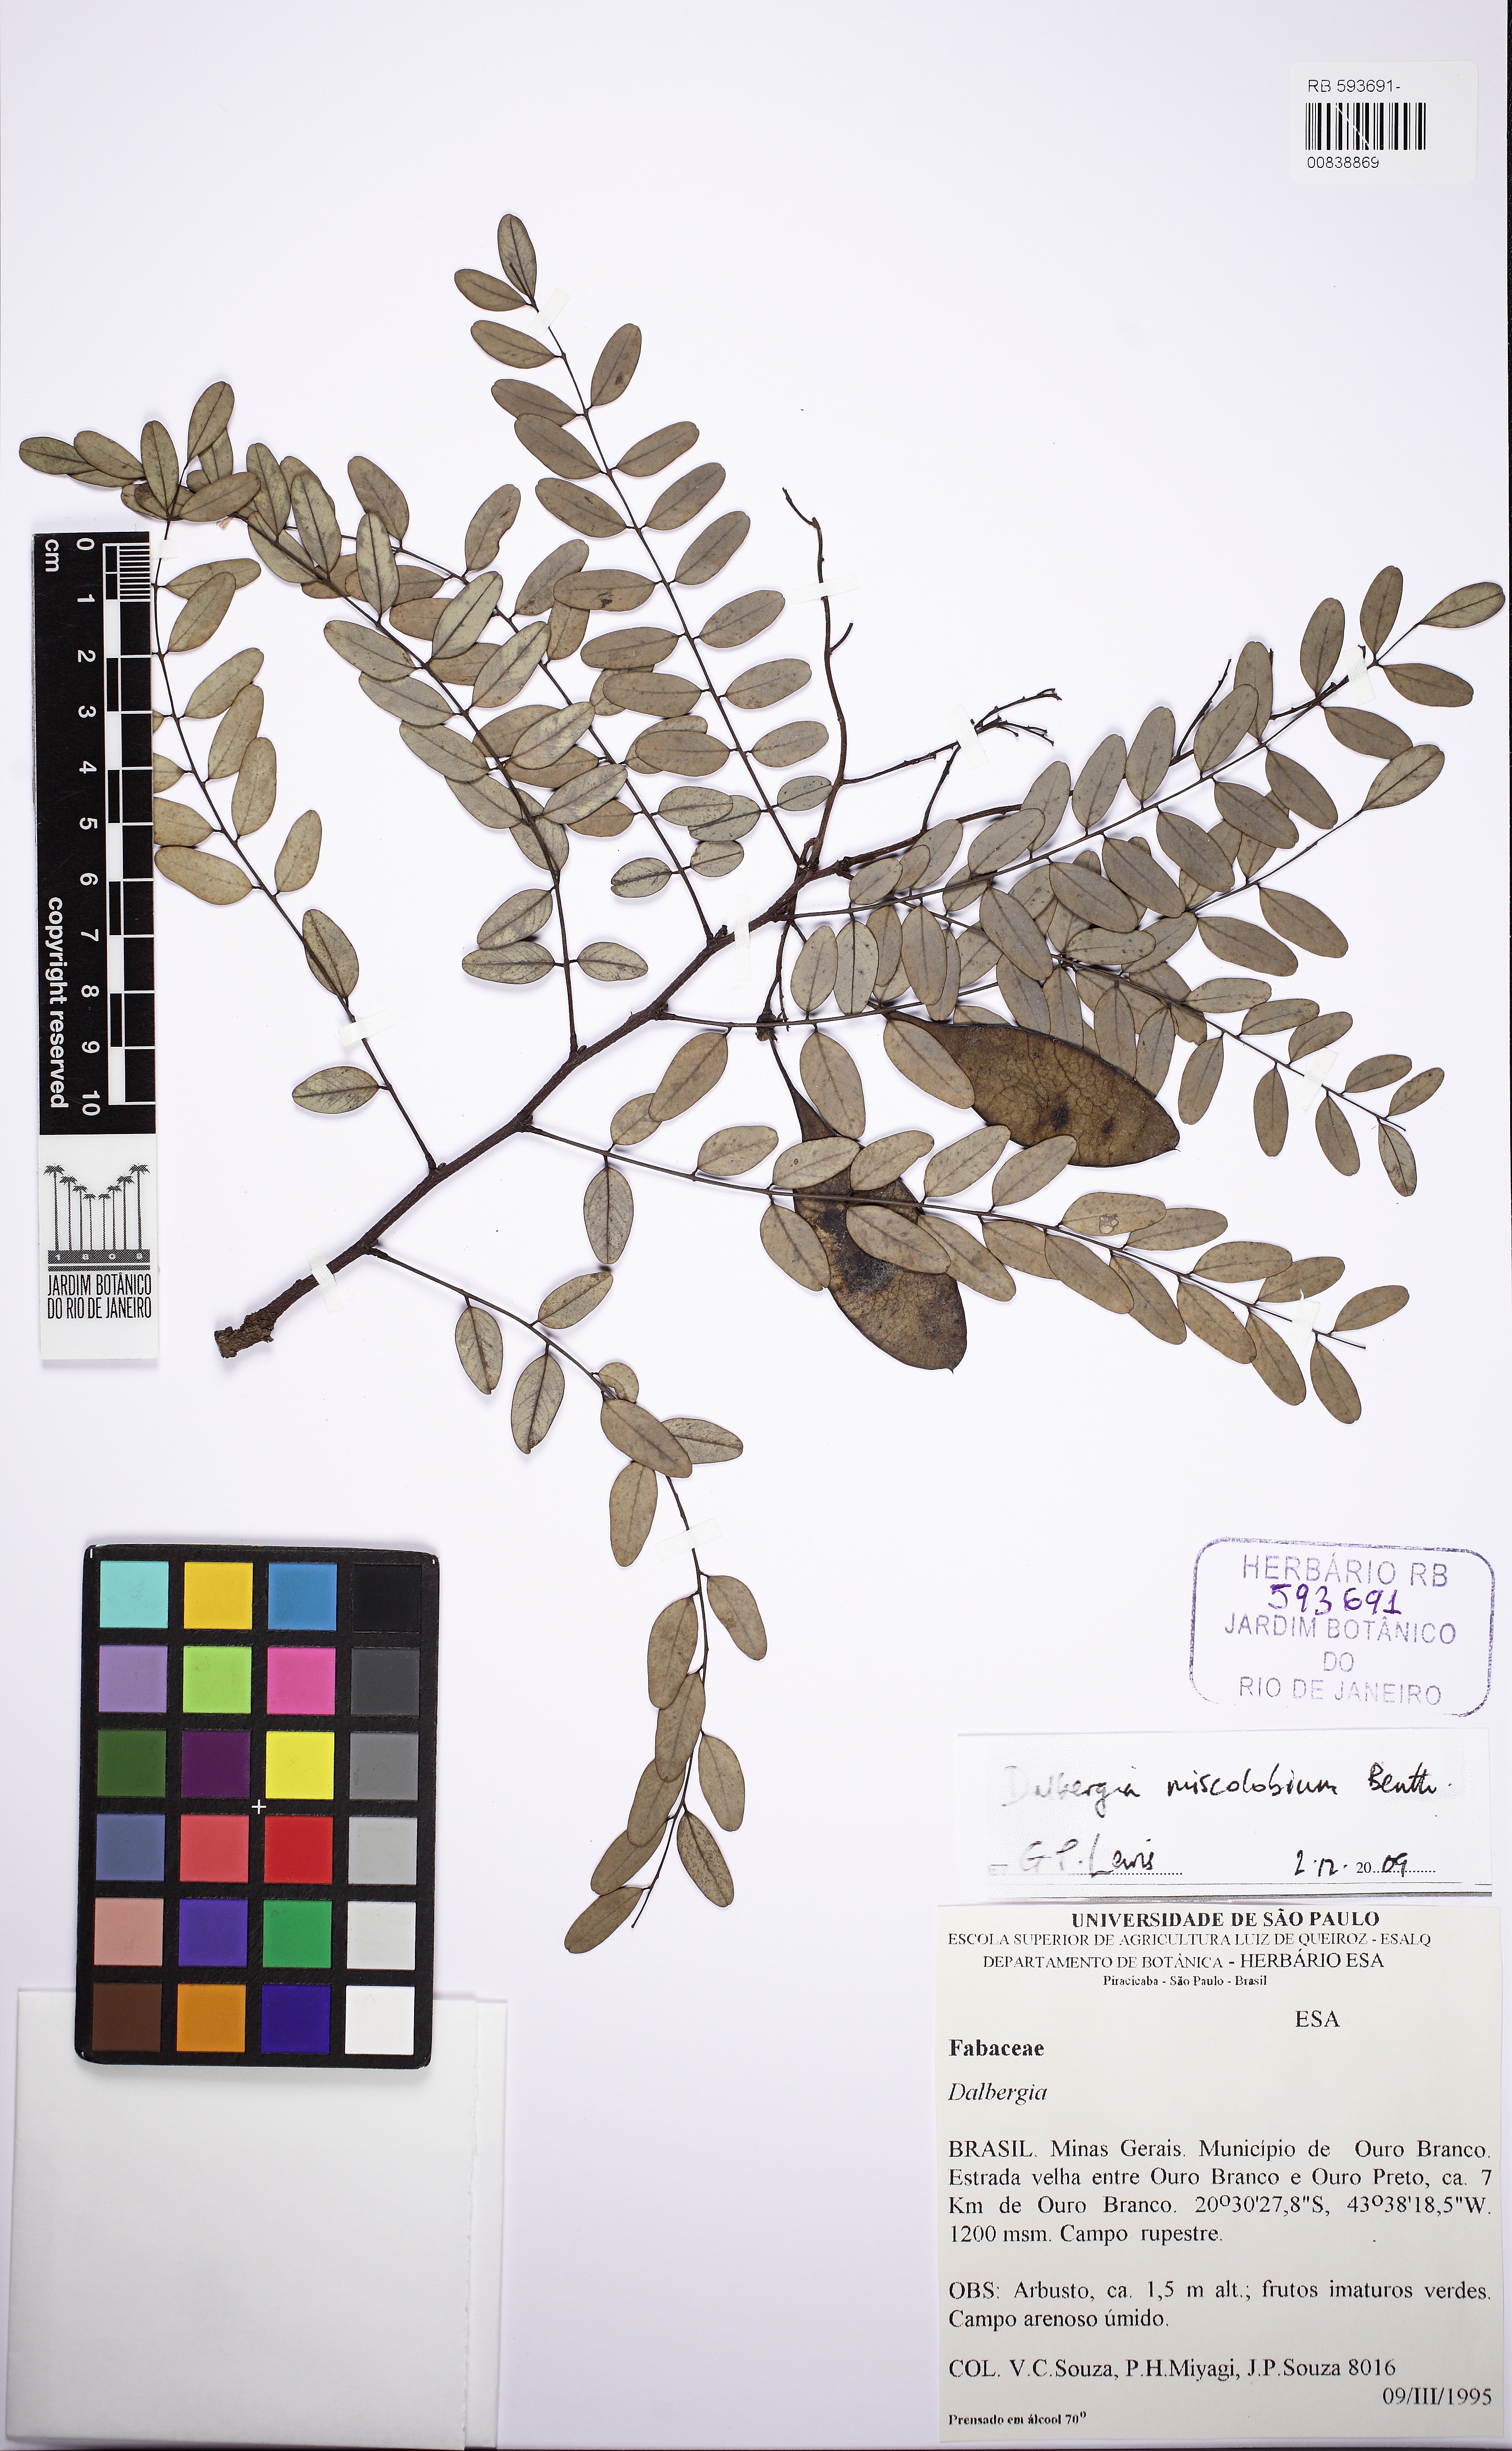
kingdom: Plantae
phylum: Tracheophyta
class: Magnoliopsida
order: Fabales
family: Fabaceae
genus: Dalbergia
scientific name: Dalbergia miscolobium
